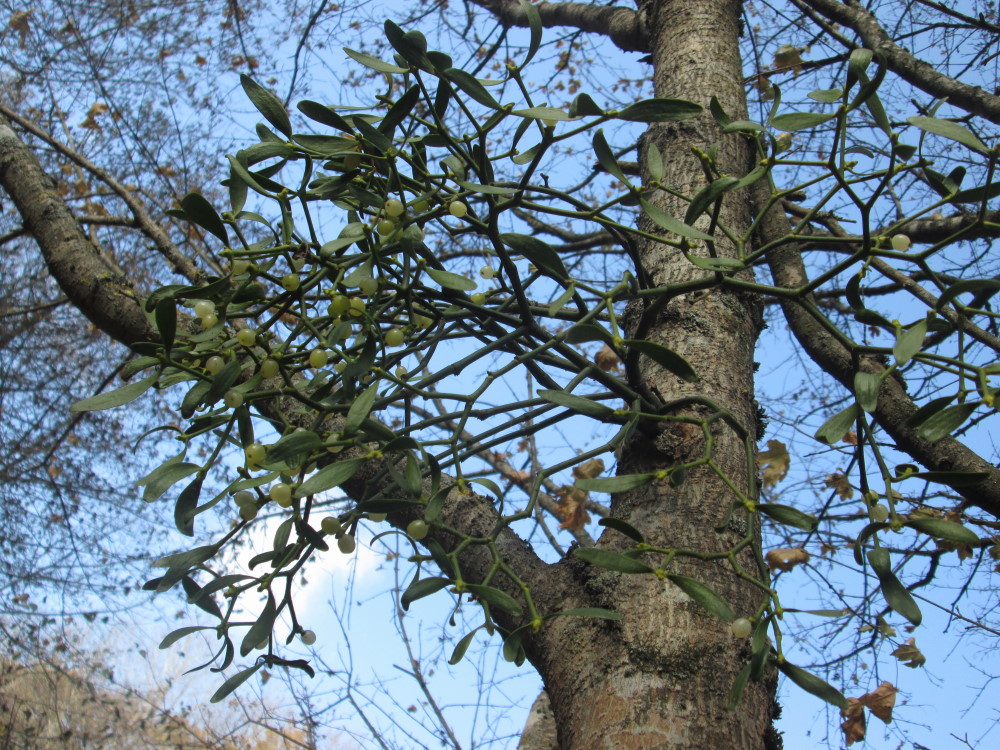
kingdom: Plantae
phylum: Tracheophyta
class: Magnoliopsida
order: Santalales
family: Viscaceae
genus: Viscum
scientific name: Viscum album
